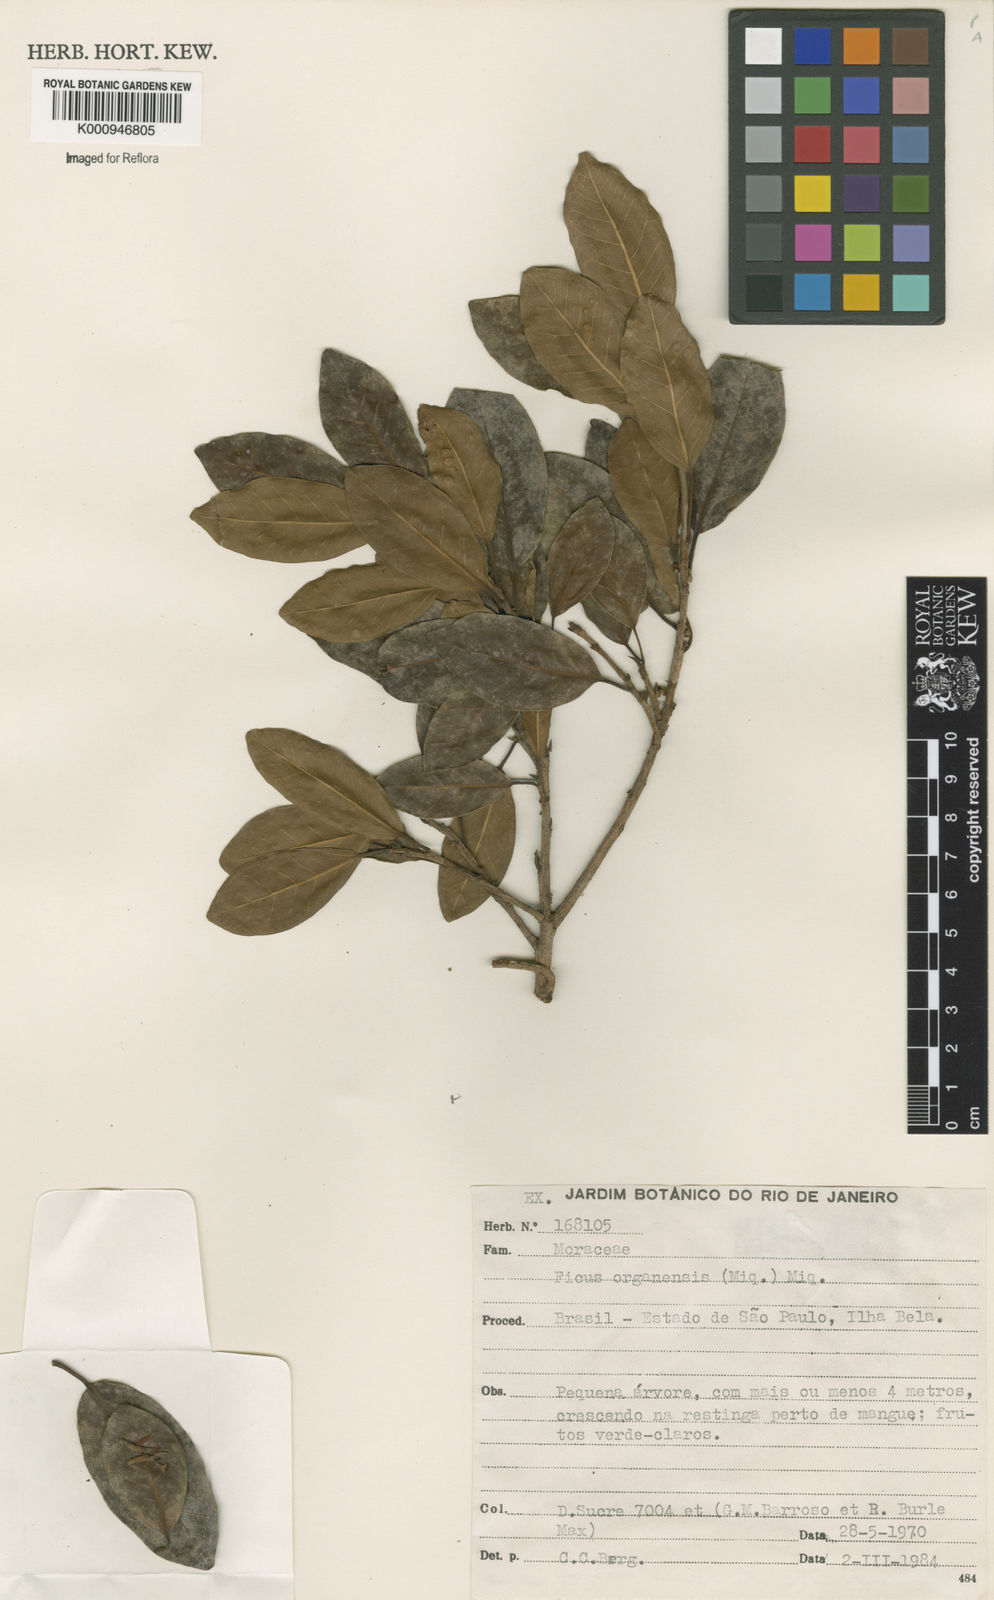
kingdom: Plantae
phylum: Tracheophyta
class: Magnoliopsida
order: Rosales
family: Moraceae
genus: Ficus
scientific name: Ficus organensis
